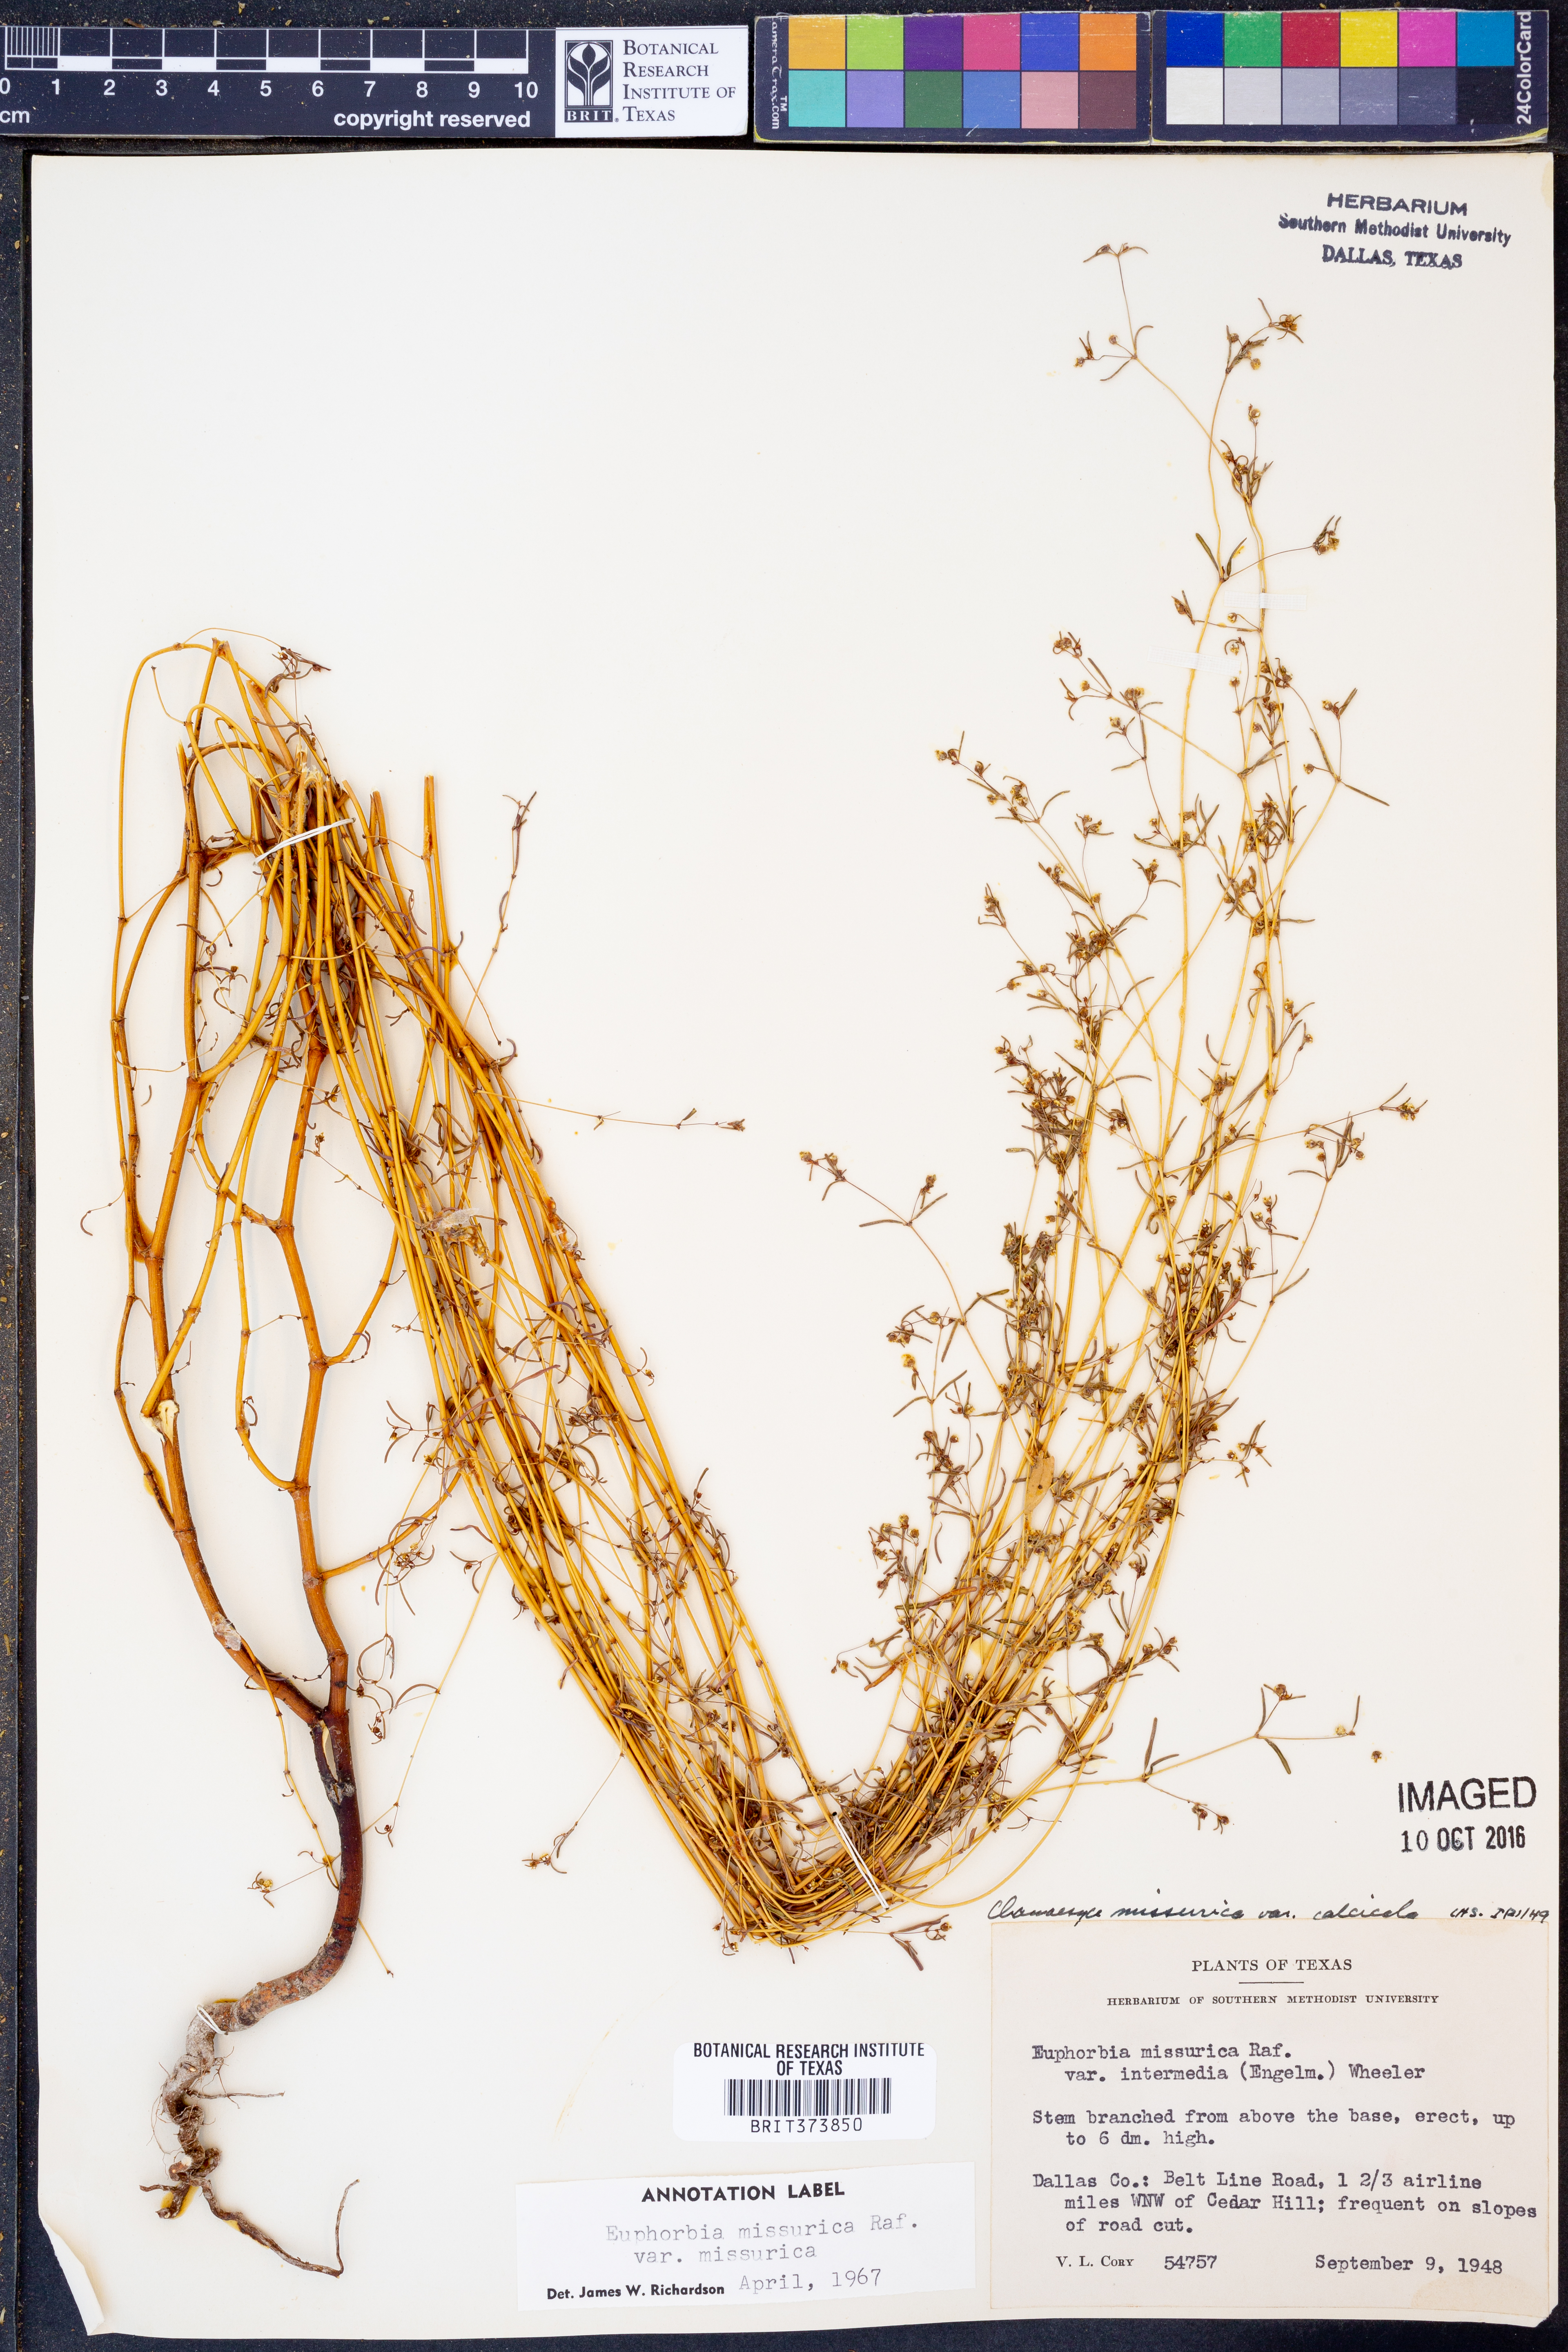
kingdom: Plantae
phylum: Tracheophyta
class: Magnoliopsida
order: Malpighiales
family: Euphorbiaceae
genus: Euphorbia
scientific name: Euphorbia missurica
